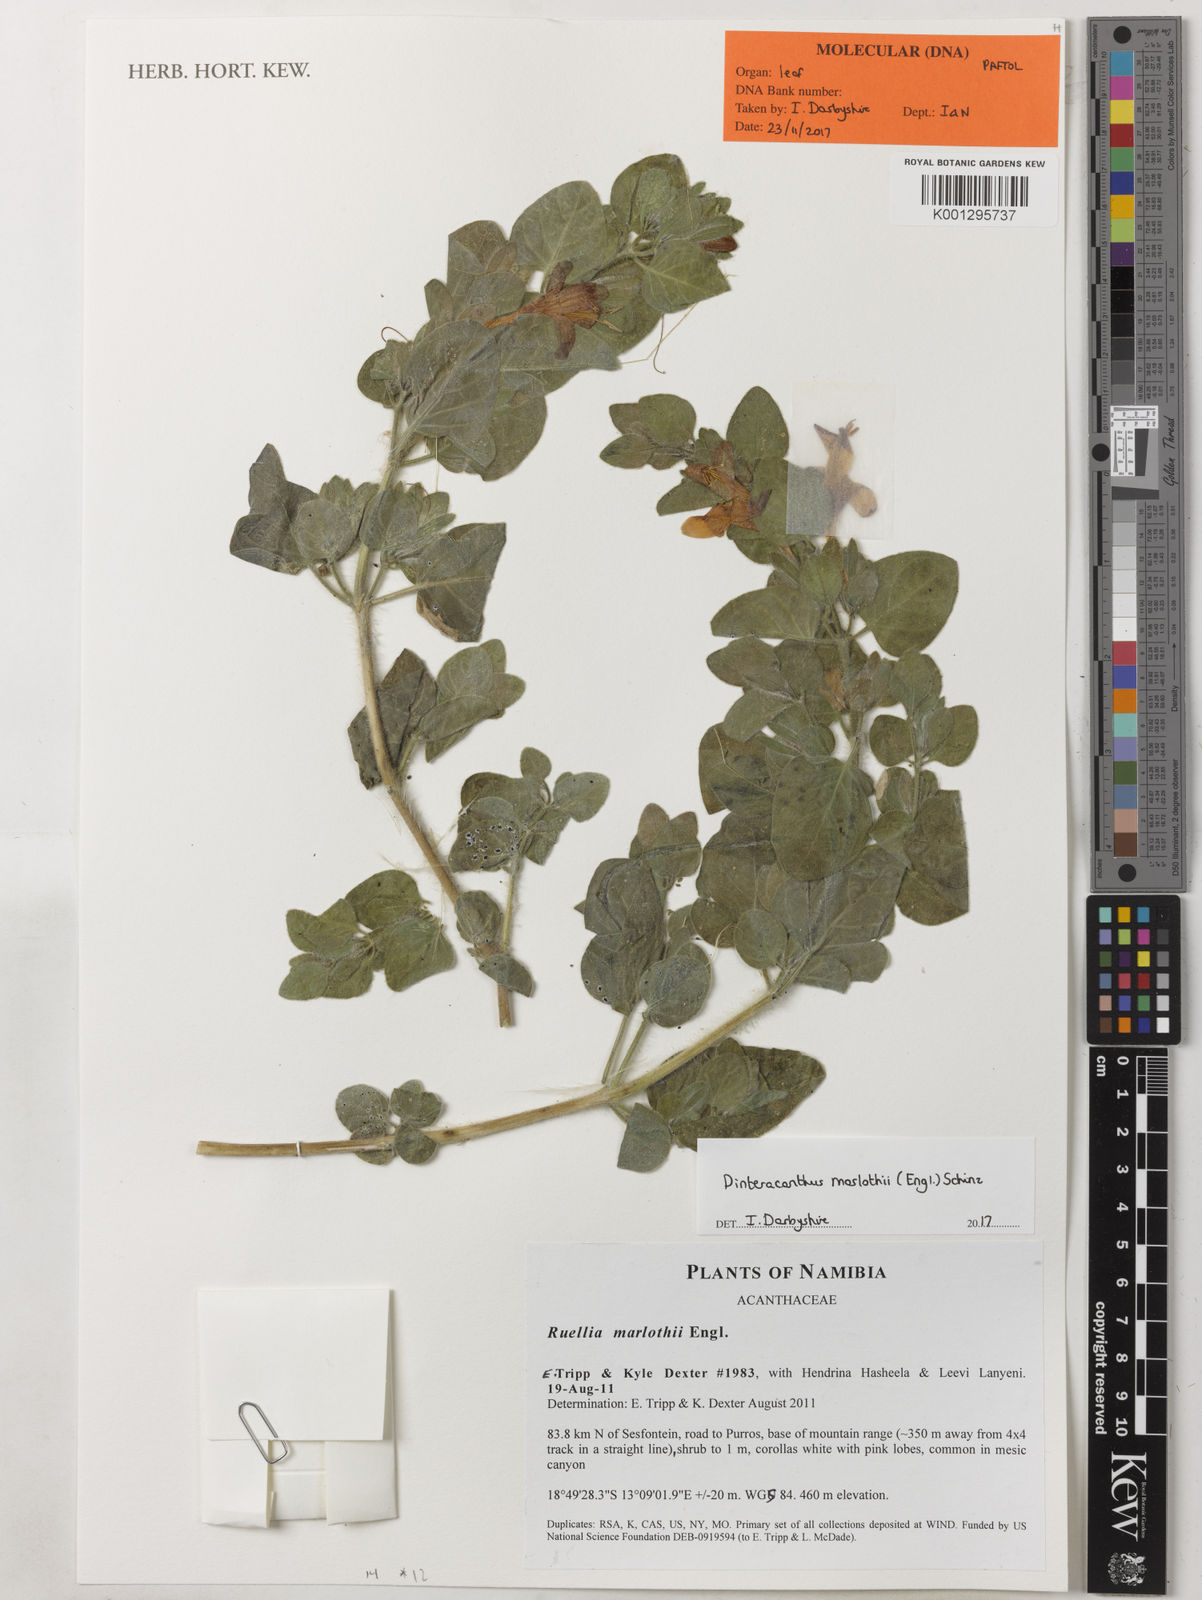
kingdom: Plantae
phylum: Tracheophyta
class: Magnoliopsida
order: Lamiales
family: Acanthaceae
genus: Dinteracanthus
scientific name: Dinteracanthus diversifolius
